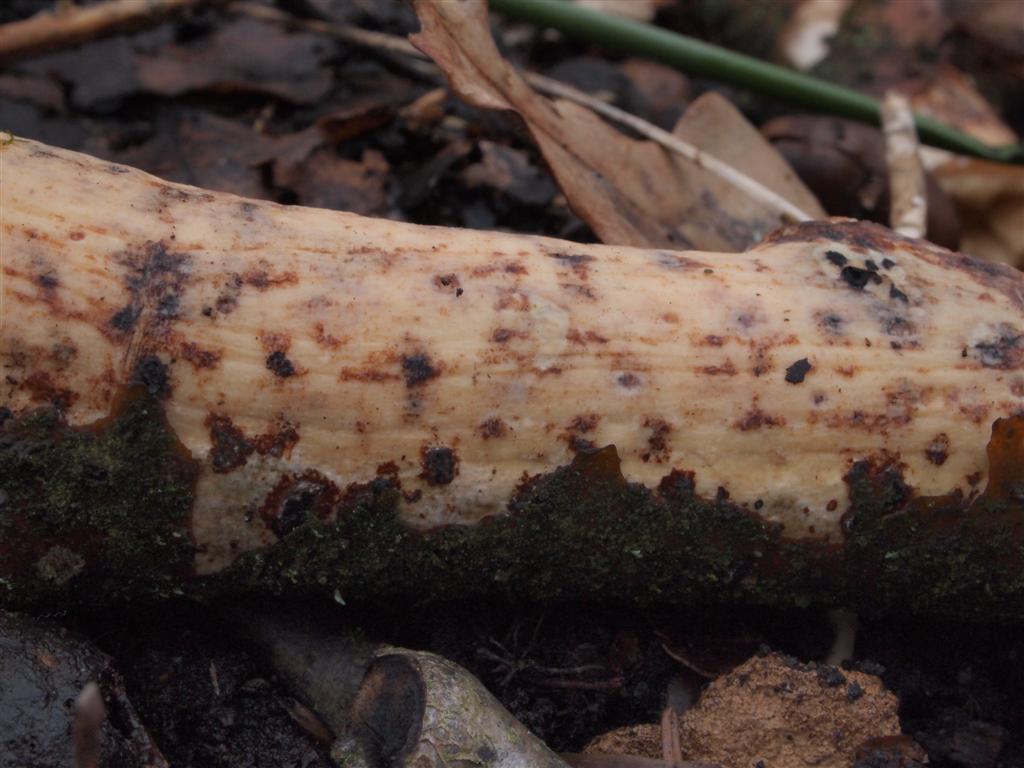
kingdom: Fungi
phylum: Basidiomycota
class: Agaricomycetes
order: Corticiales
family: Vuilleminiaceae
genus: Vuilleminia
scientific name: Vuilleminia comedens
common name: almindelig barksprænger
